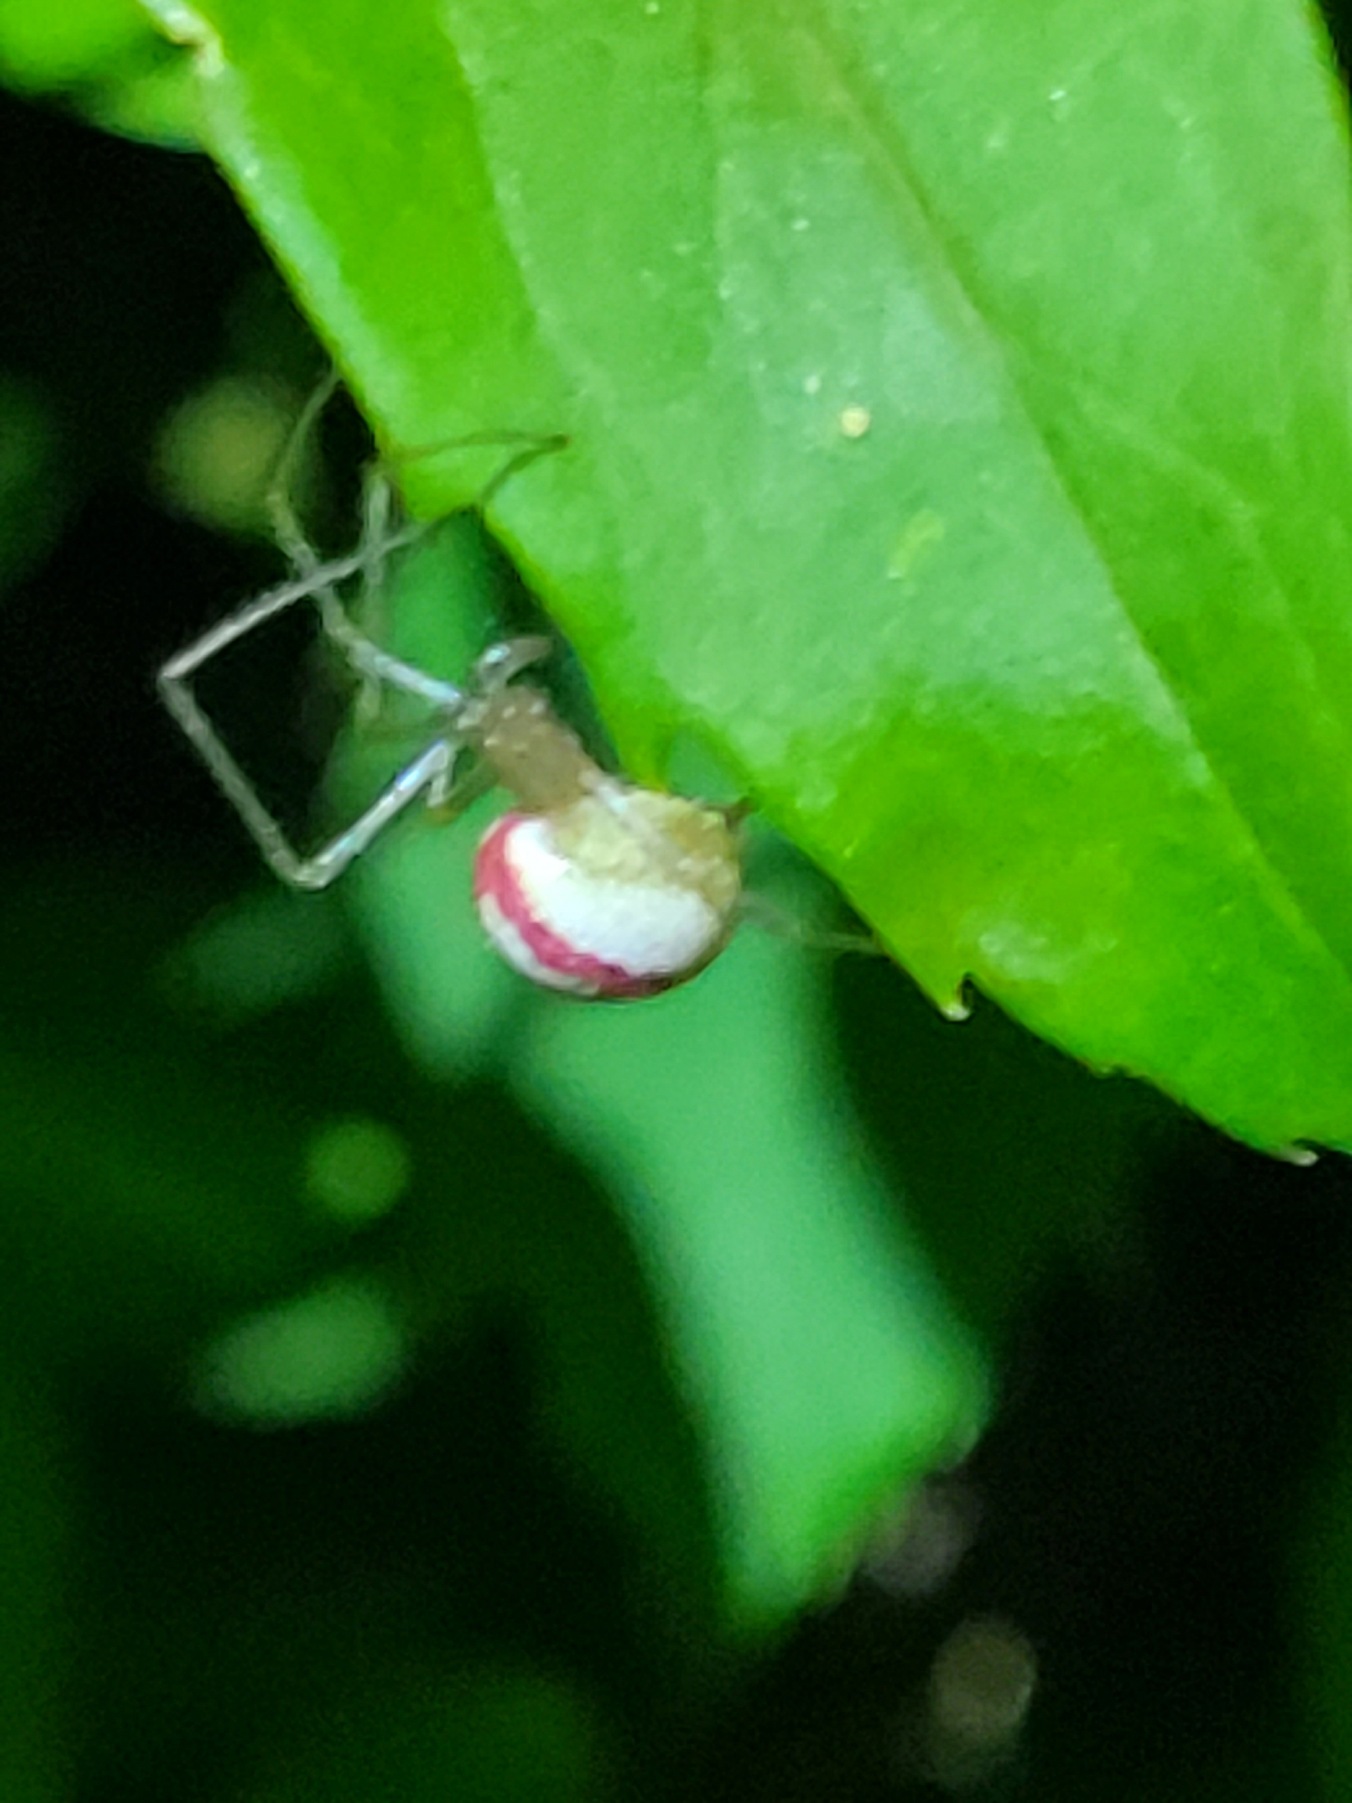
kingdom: Animalia
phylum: Arthropoda
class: Arachnida
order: Araneae
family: Theridiidae
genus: Enoplognatha
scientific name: Enoplognatha
